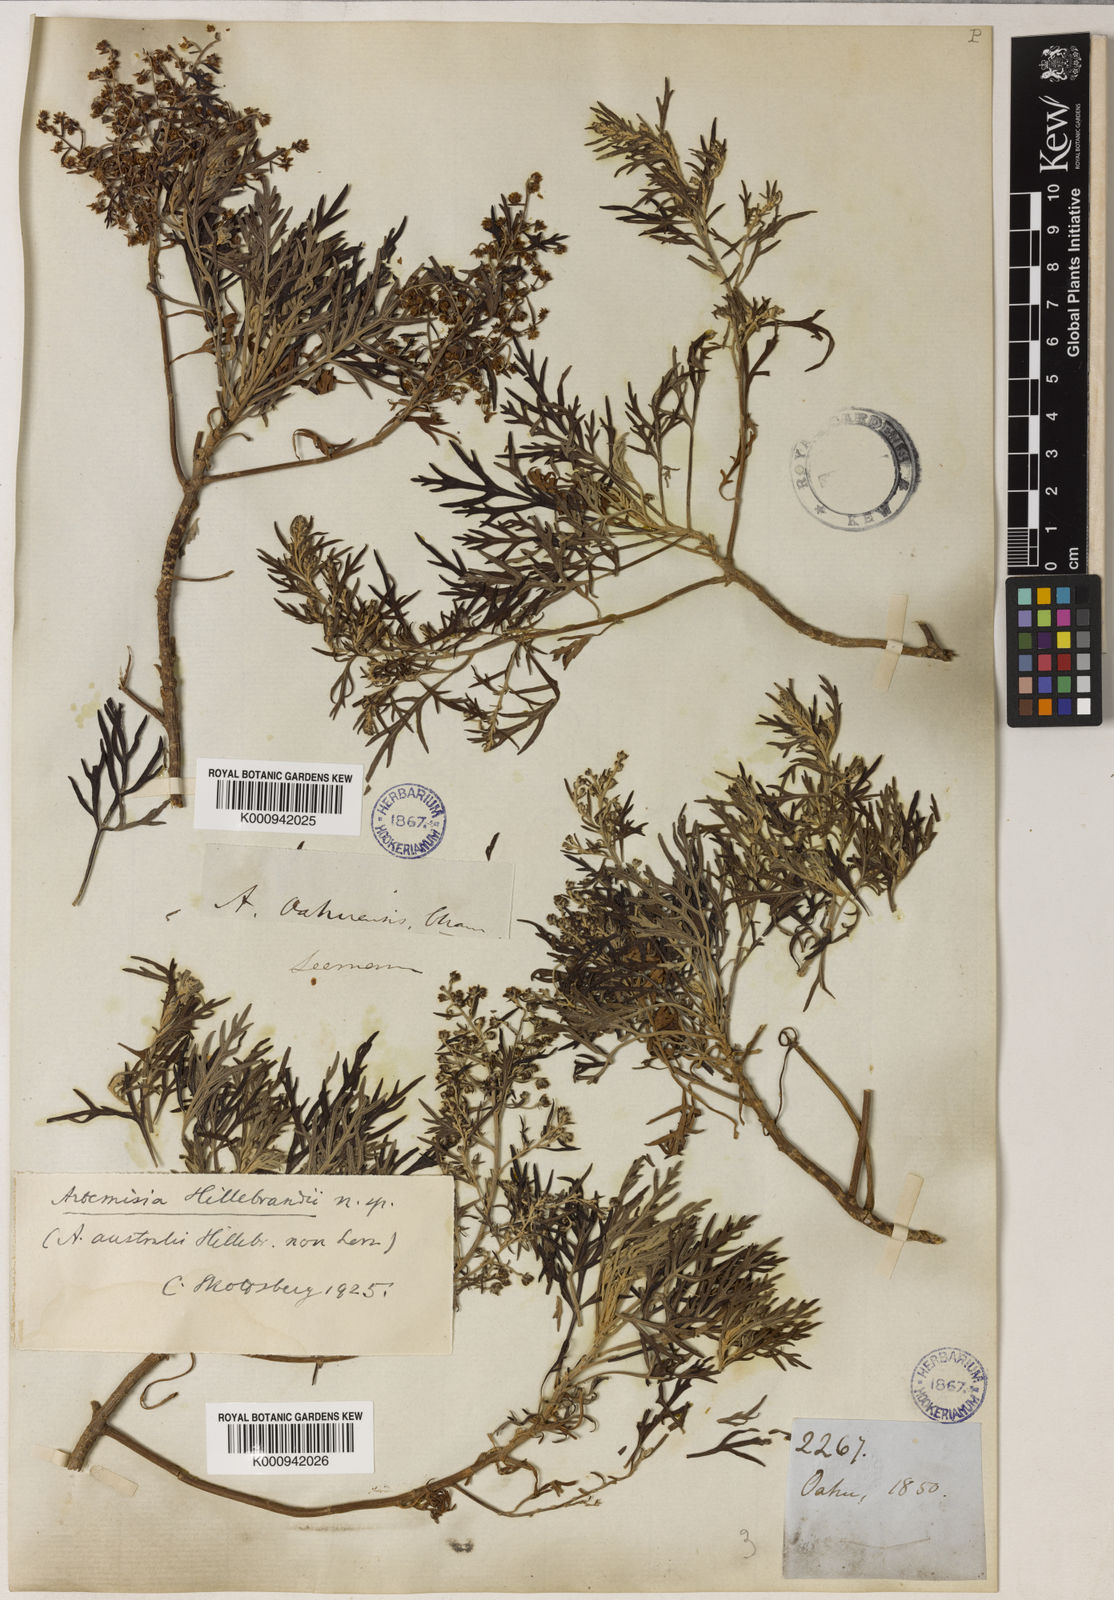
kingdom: Plantae
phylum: Tracheophyta
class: Magnoliopsida
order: Asterales
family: Asteraceae
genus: Artemisia
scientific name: Artemisia australis
